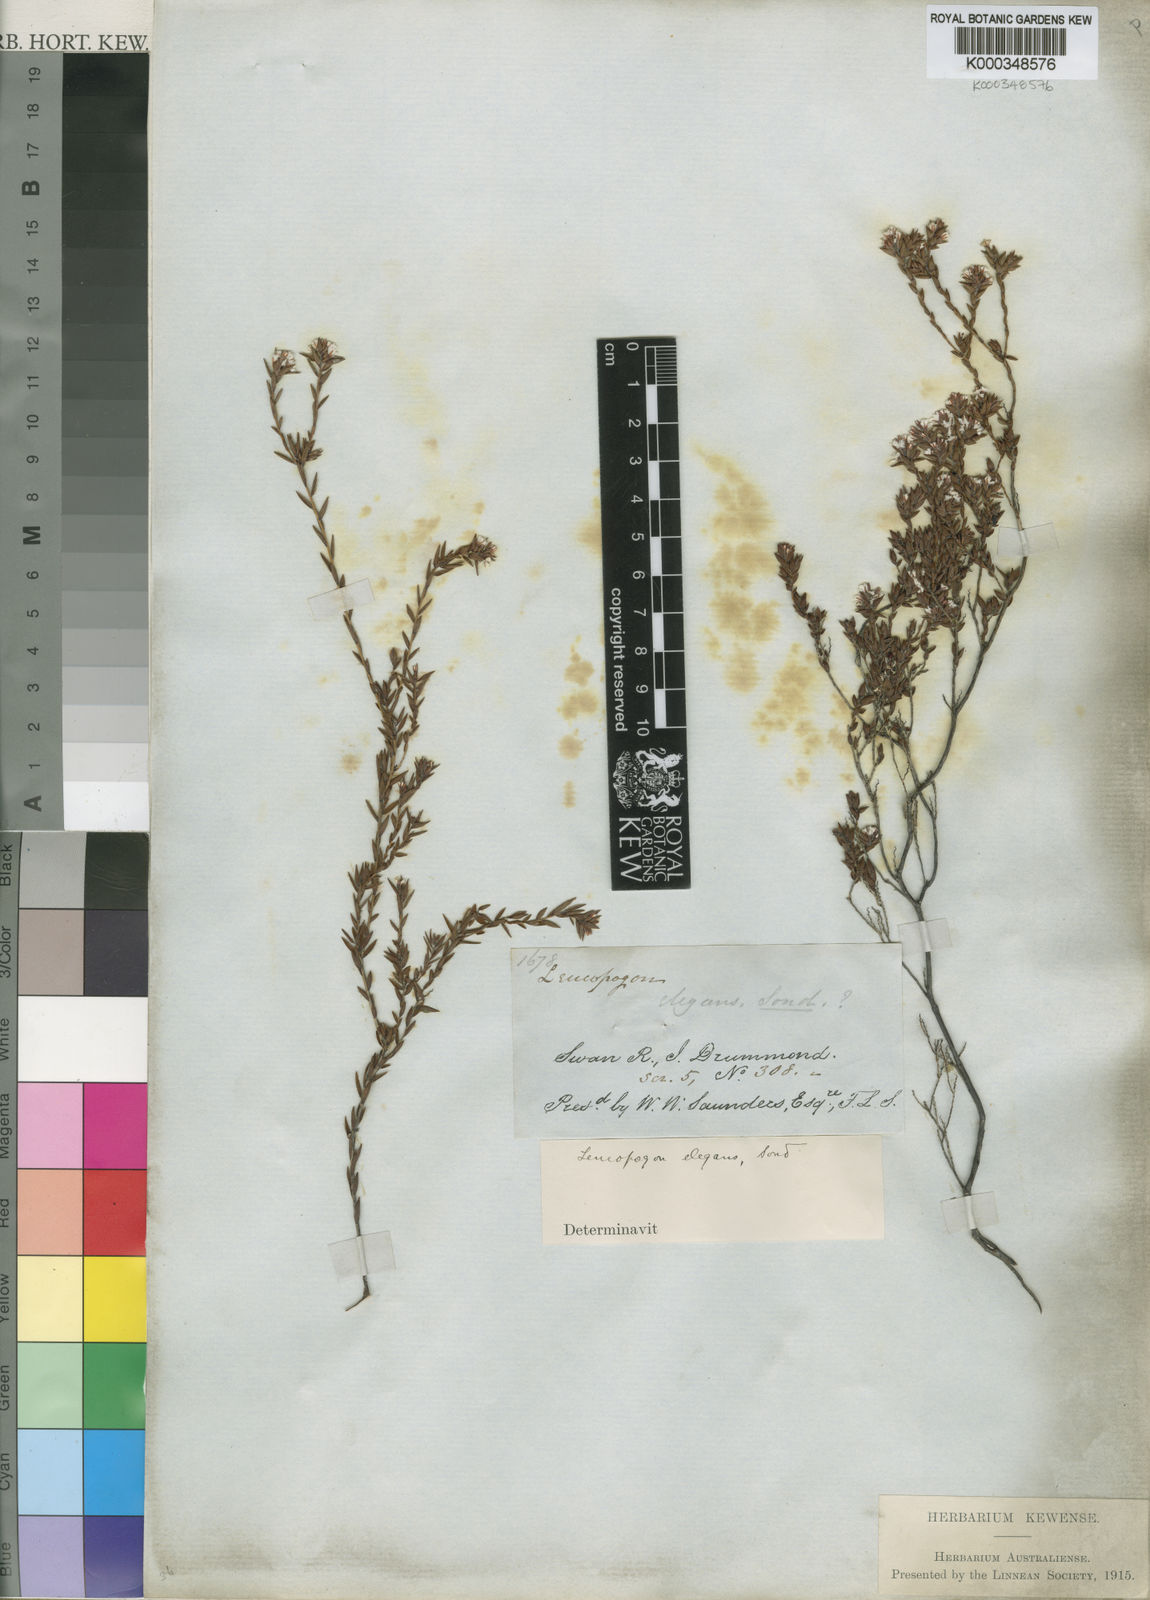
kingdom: Plantae
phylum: Tracheophyta
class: Magnoliopsida
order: Ericales
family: Ericaceae
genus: Leucopogon
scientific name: Leucopogon elegans
